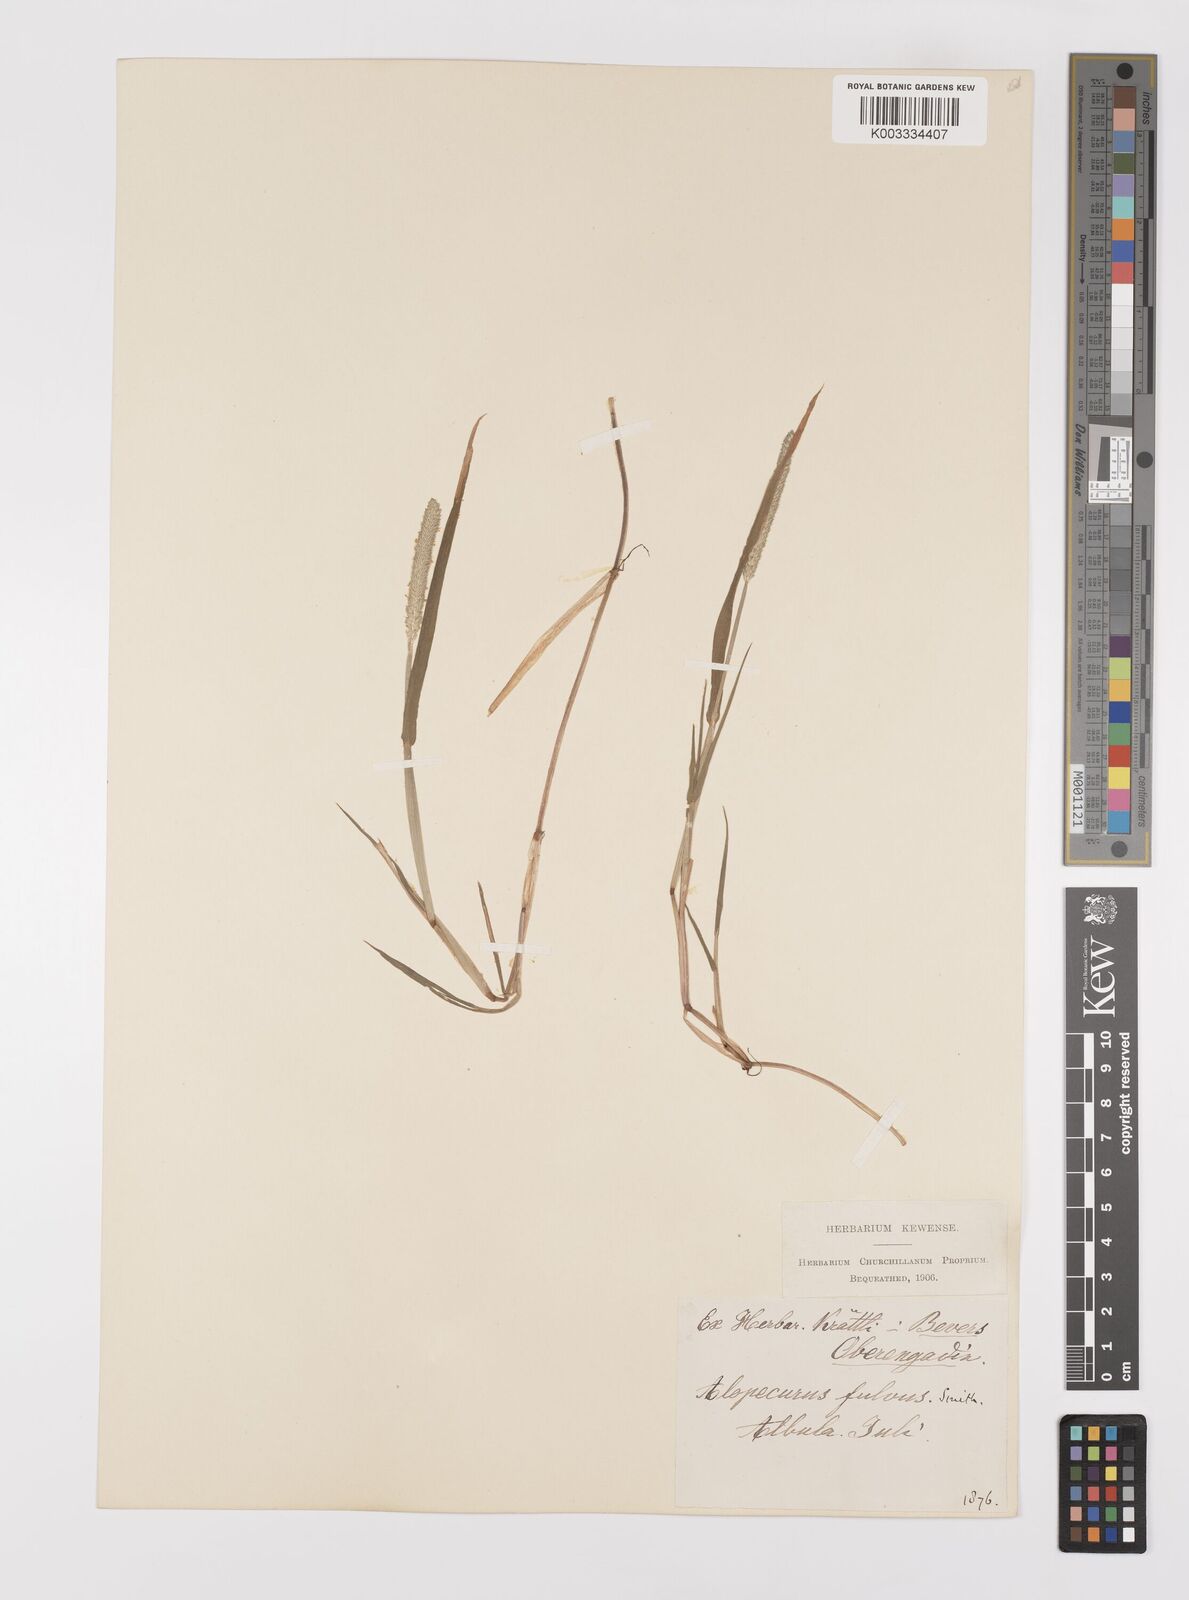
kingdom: Plantae
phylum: Tracheophyta
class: Liliopsida
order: Poales
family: Poaceae
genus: Alopecurus
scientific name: Alopecurus aequalis
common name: Orange foxtail
